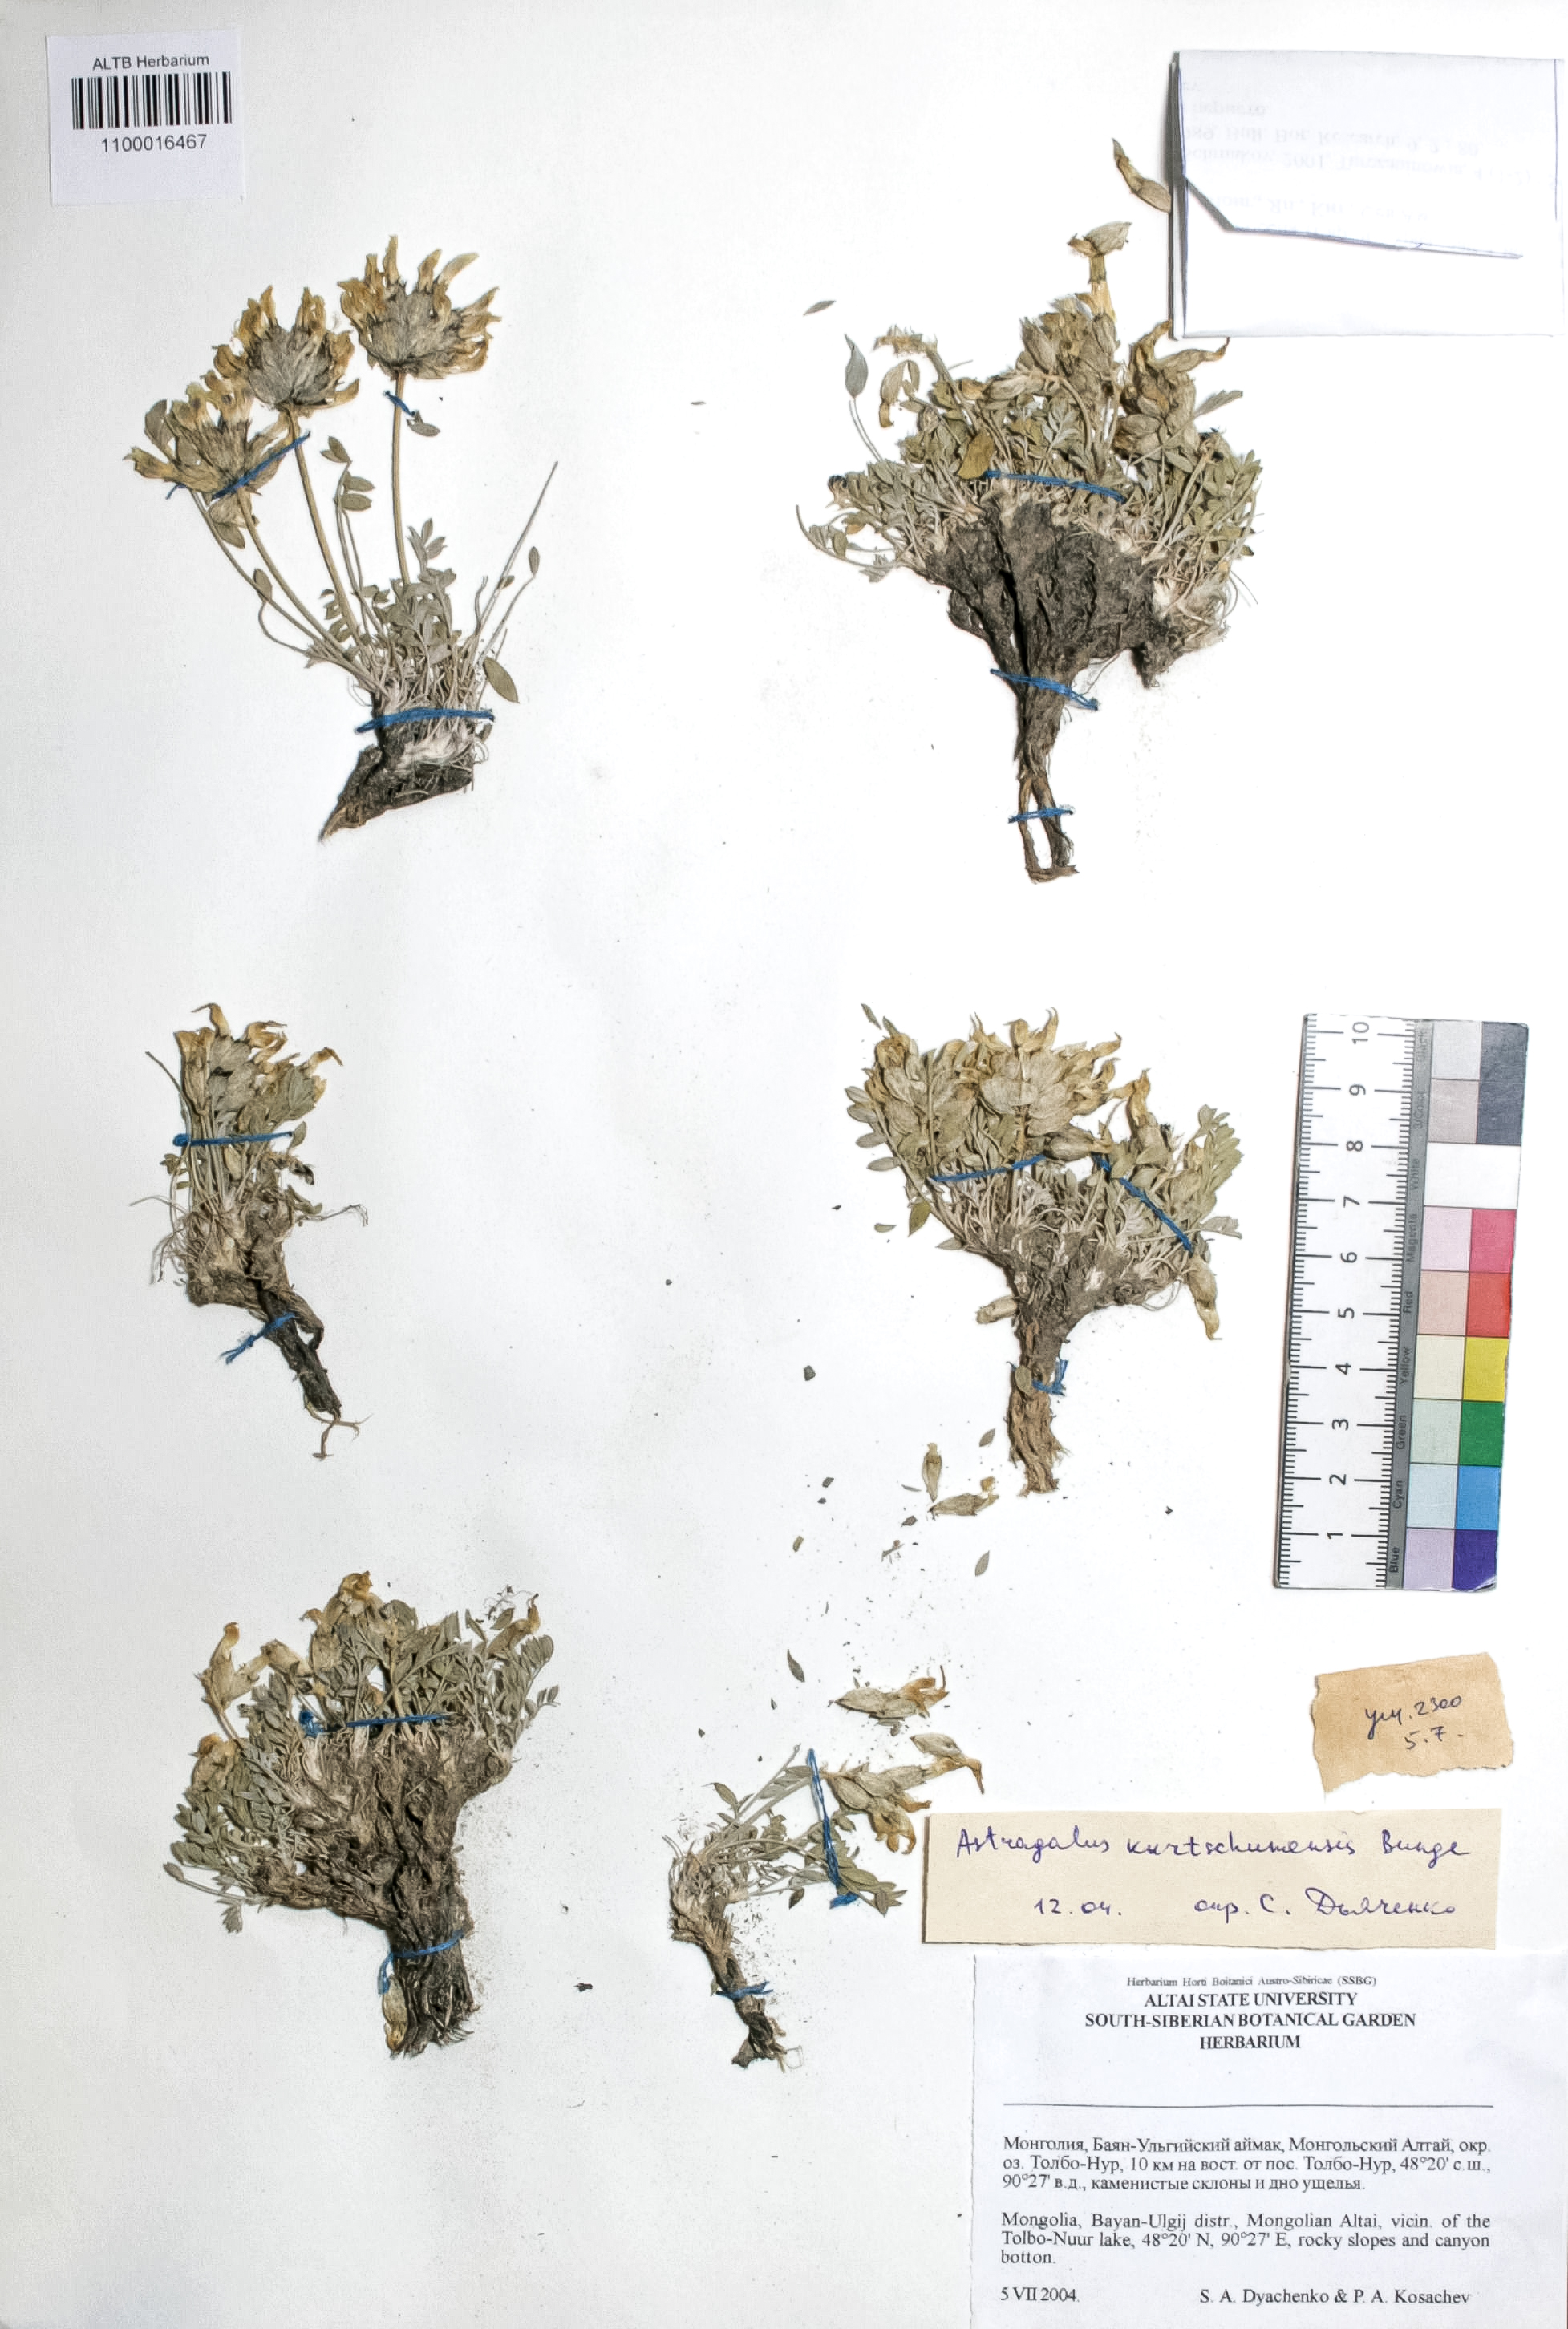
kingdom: Plantae
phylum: Tracheophyta
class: Magnoliopsida
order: Fabales
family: Fabaceae
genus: Astragalus
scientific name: Astragalus kurtschumensis
